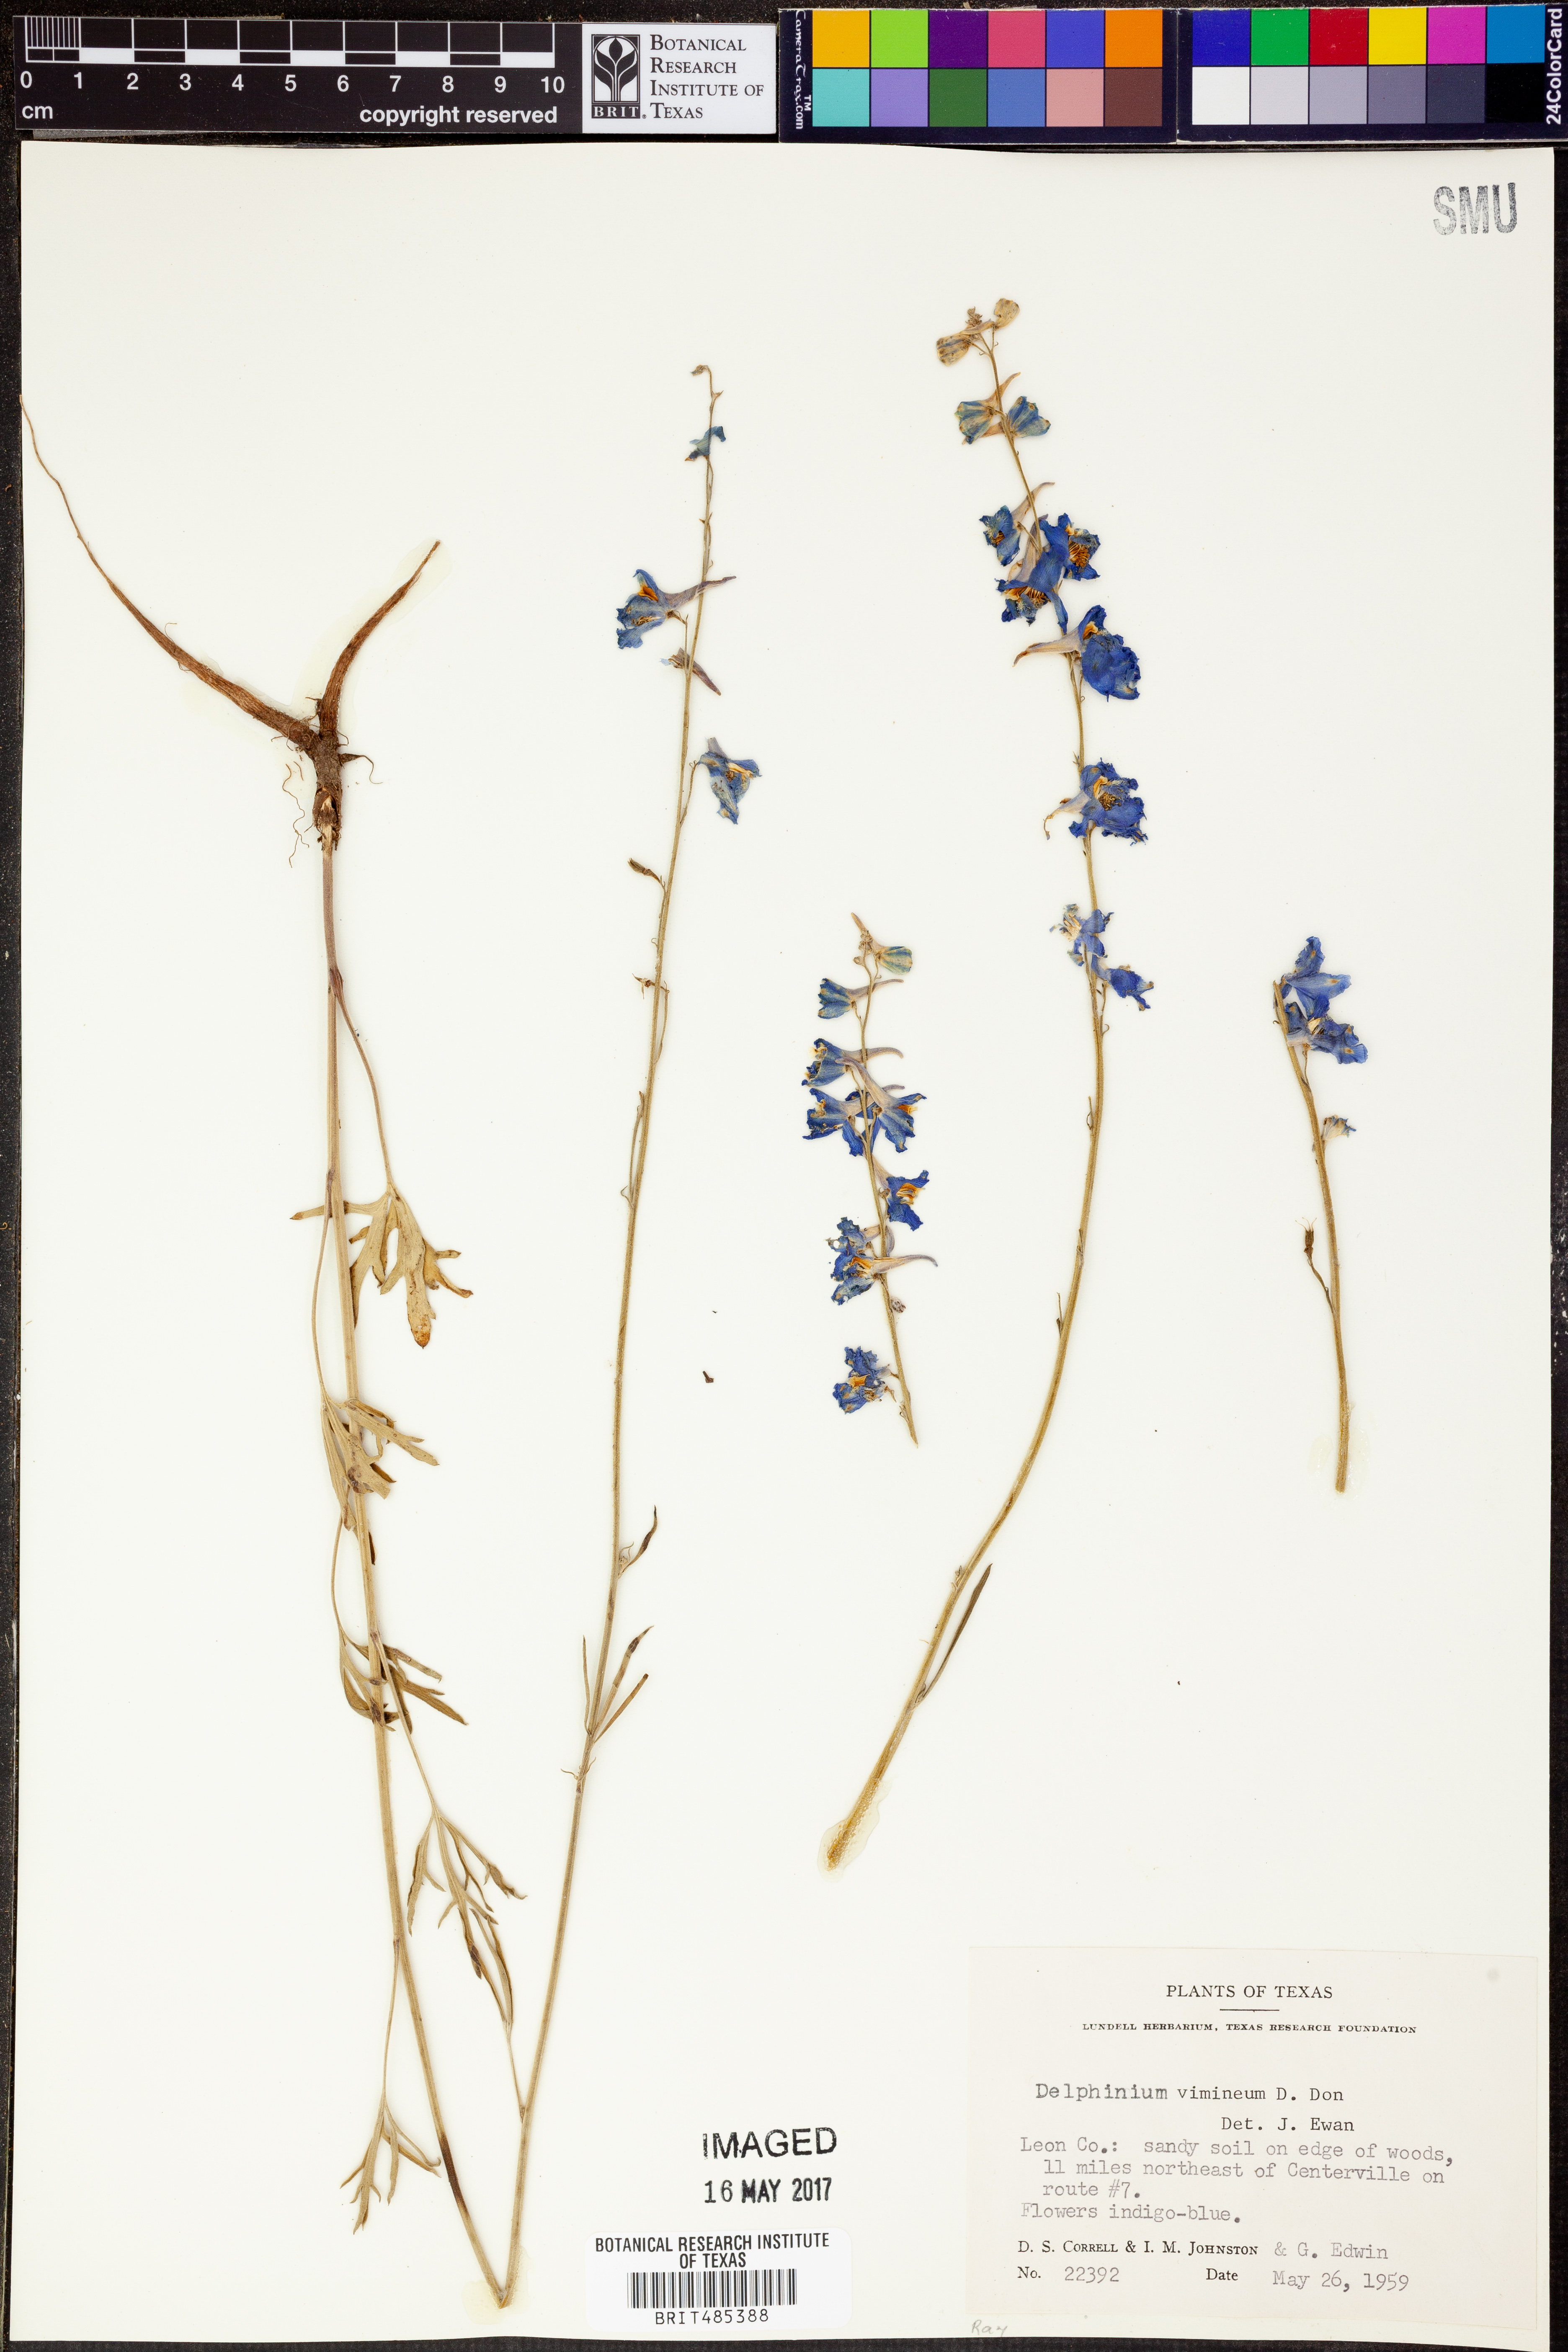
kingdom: Plantae
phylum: Tracheophyta
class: Magnoliopsida
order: Ranunculales
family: Ranunculaceae
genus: Delphinium
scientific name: Delphinium carolinianum
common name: Carolina larkspur
